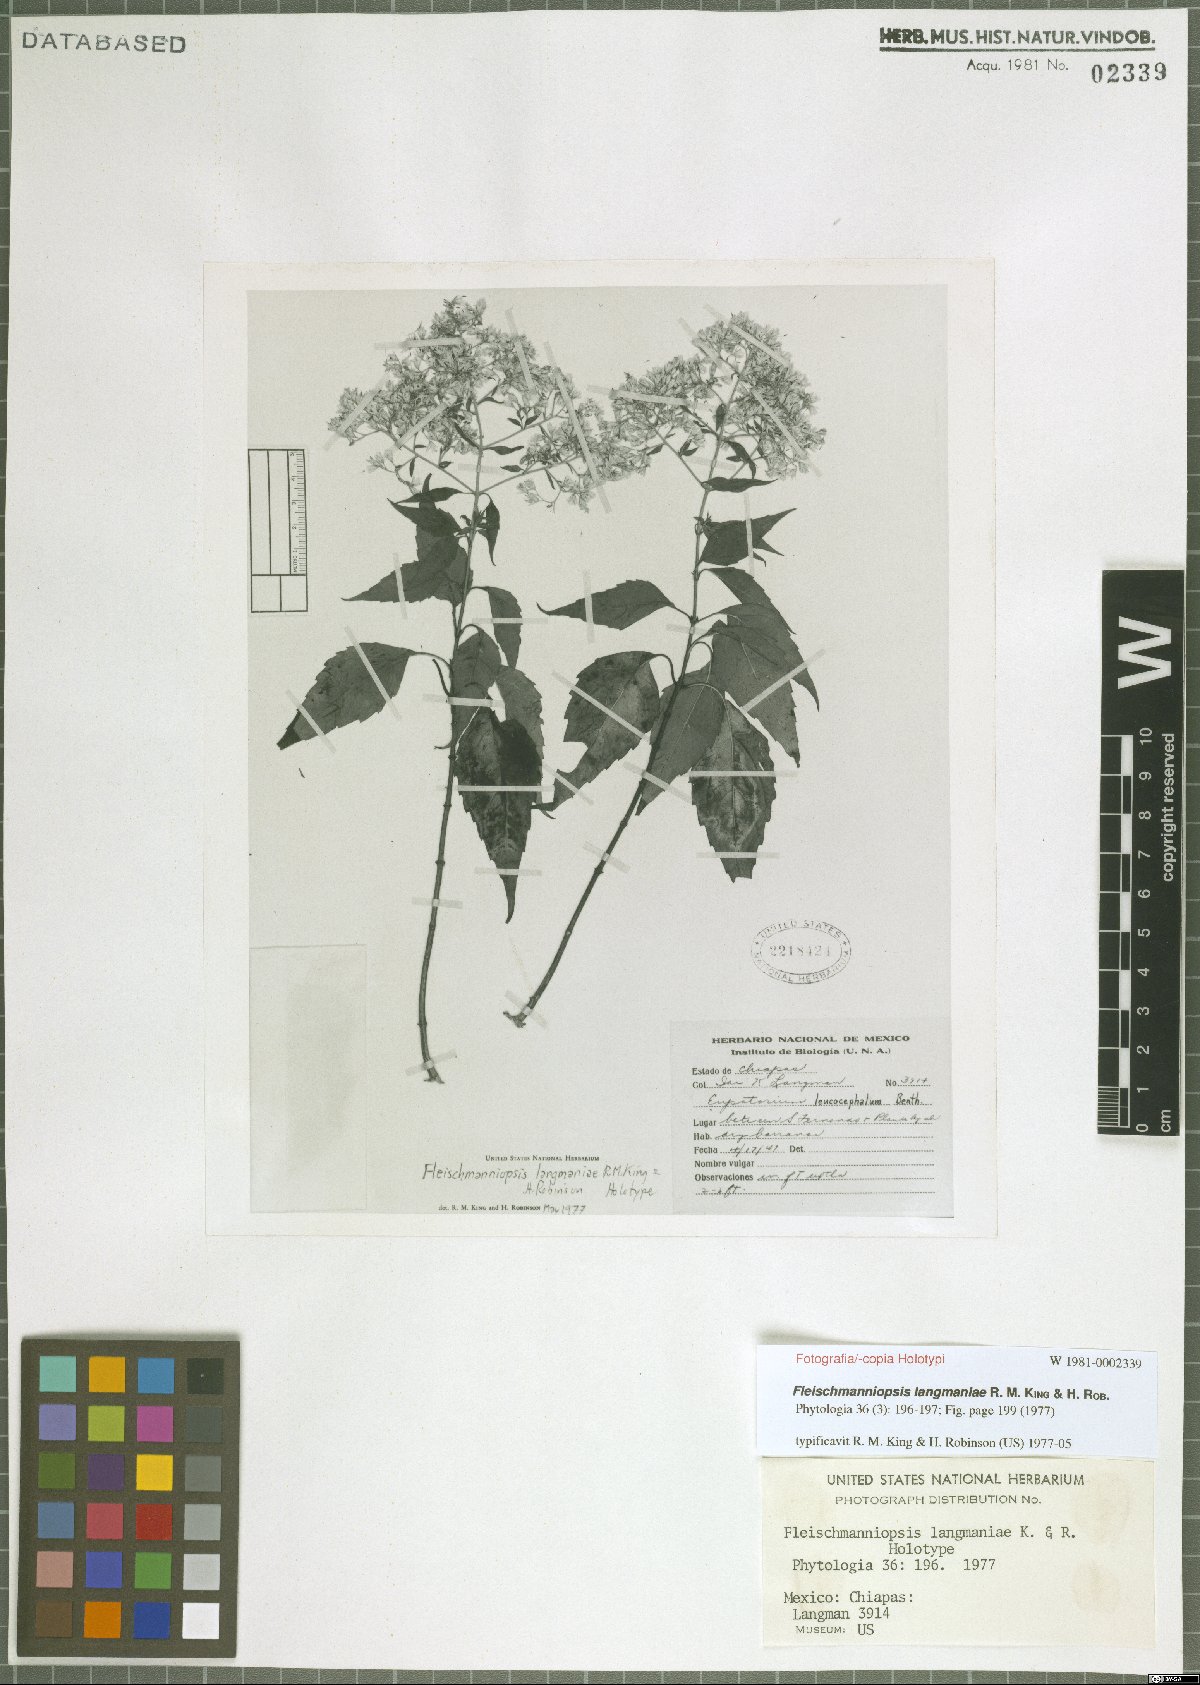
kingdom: Plantae
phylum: Tracheophyta
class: Magnoliopsida
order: Asterales
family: Asteraceae
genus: Fleischmanniopsis
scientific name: Fleischmanniopsis langmaniae
